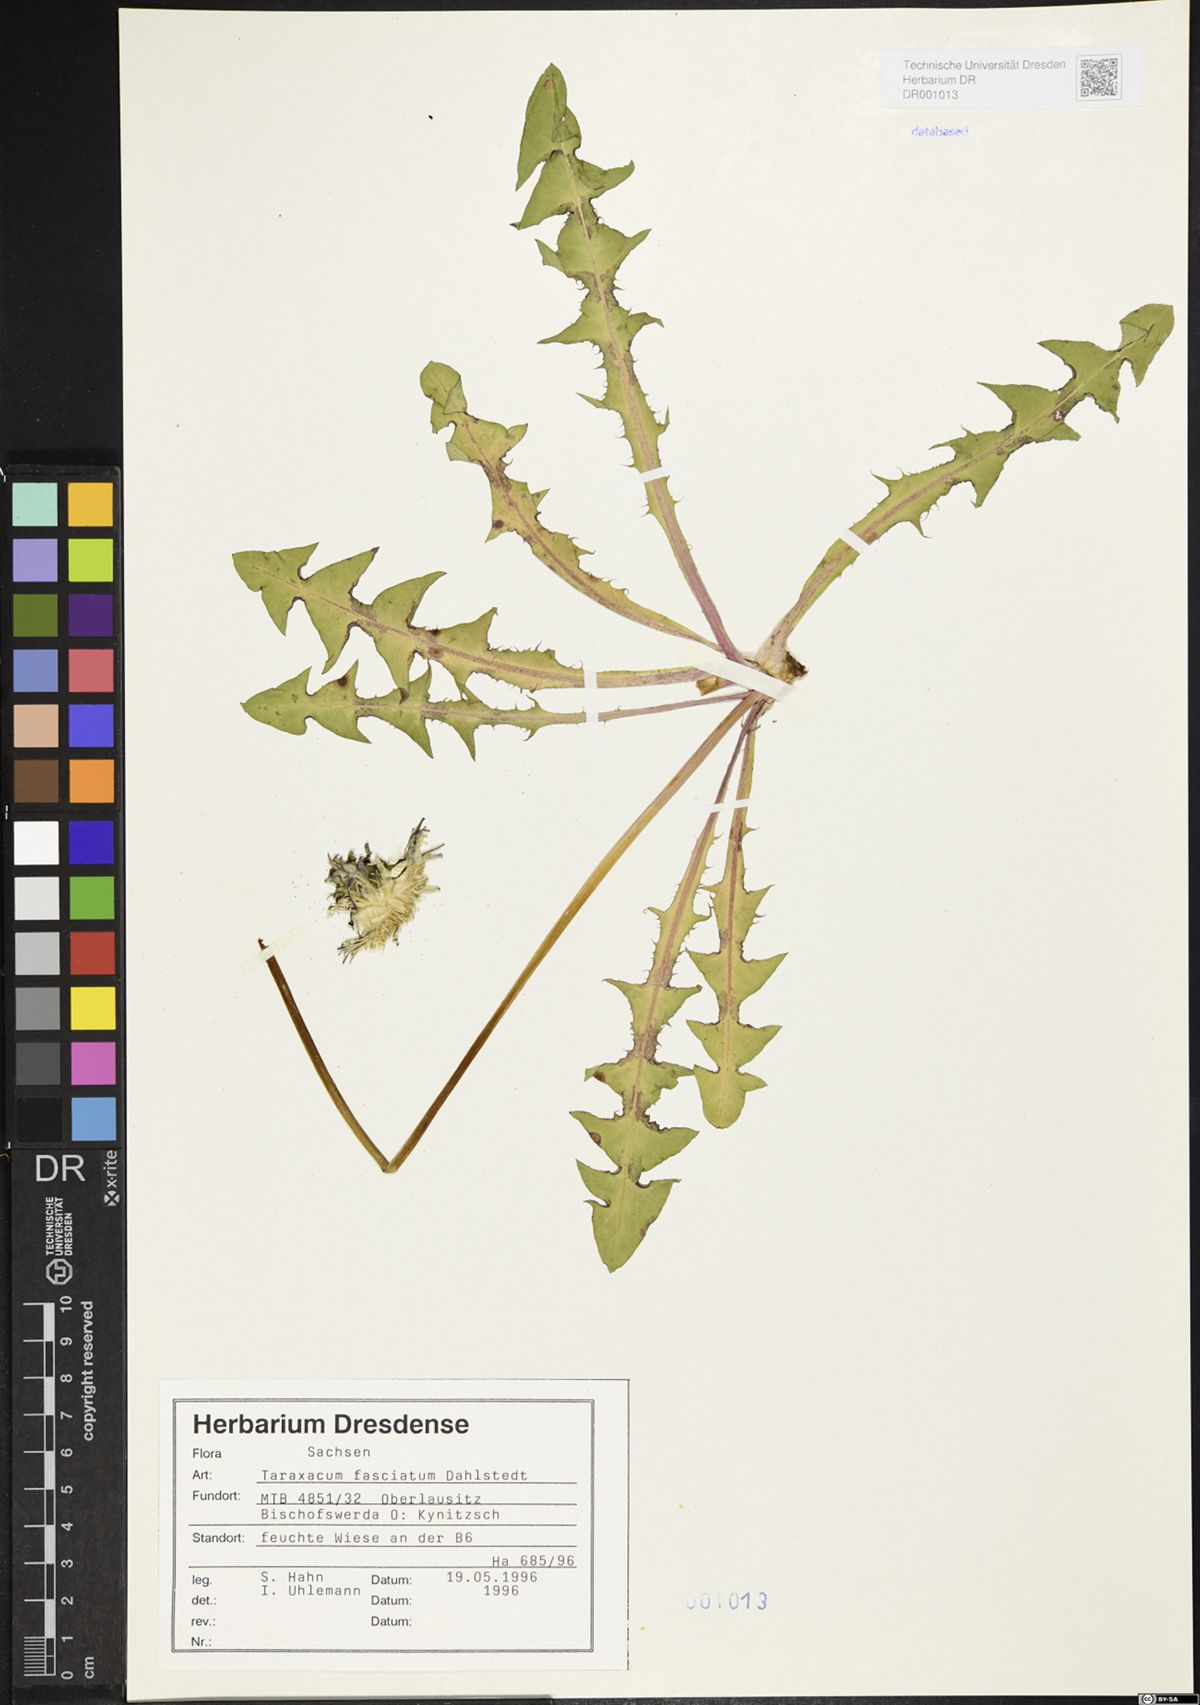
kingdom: Plantae
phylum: Tracheophyta
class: Magnoliopsida
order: Asterales
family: Asteraceae
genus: Taraxacum
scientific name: Taraxacum fasciatum
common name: Dense-bracted dandelion
